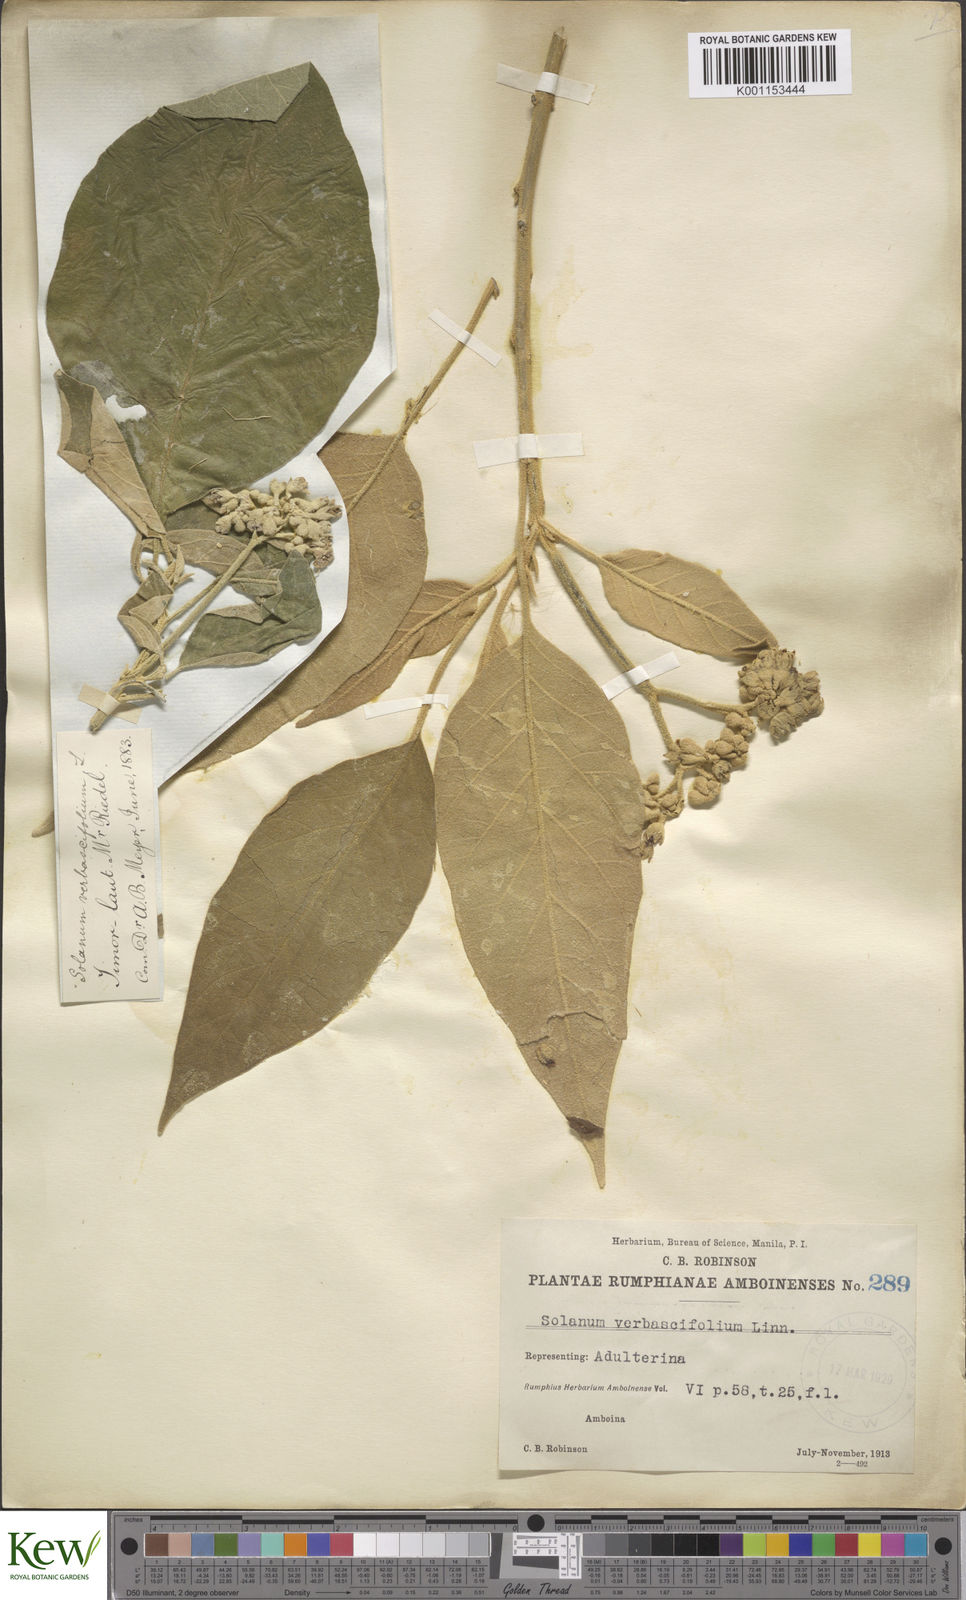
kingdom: Plantae
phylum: Tracheophyta
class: Magnoliopsida
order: Solanales
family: Solanaceae
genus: Solanum
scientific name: Solanum erianthum
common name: Tobacco-tree
